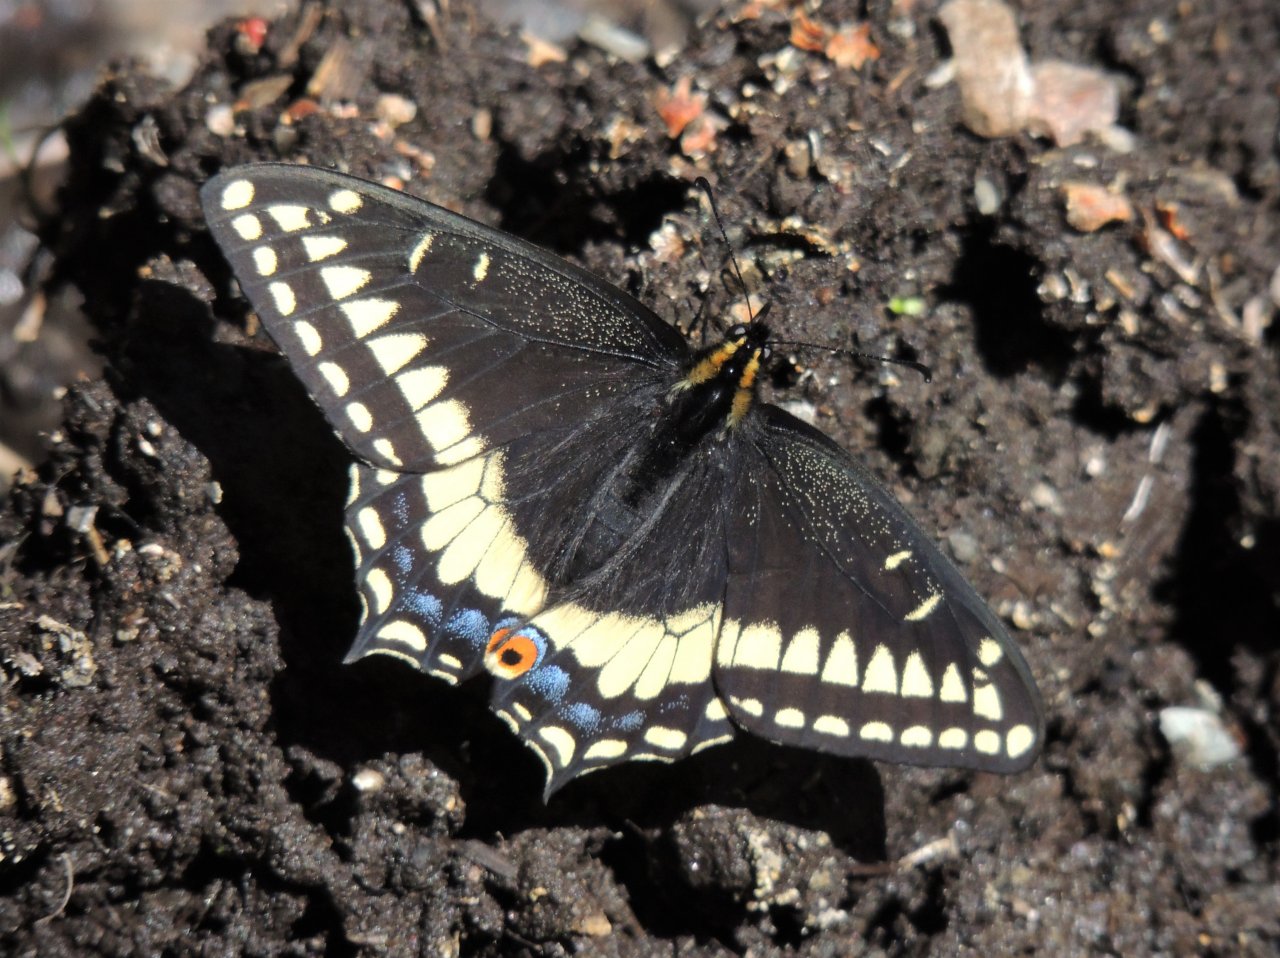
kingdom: Animalia
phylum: Arthropoda
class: Insecta
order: Lepidoptera
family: Papilionidae
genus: Papilio
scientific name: Papilio indra
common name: Indra Swallowtail
